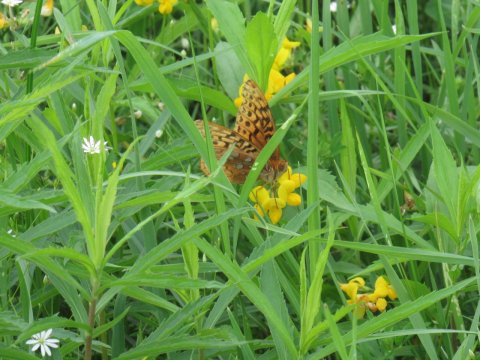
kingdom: Animalia
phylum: Arthropoda
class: Insecta
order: Lepidoptera
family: Nymphalidae
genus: Speyeria
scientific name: Speyeria cybele
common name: Great Spangled Fritillary
